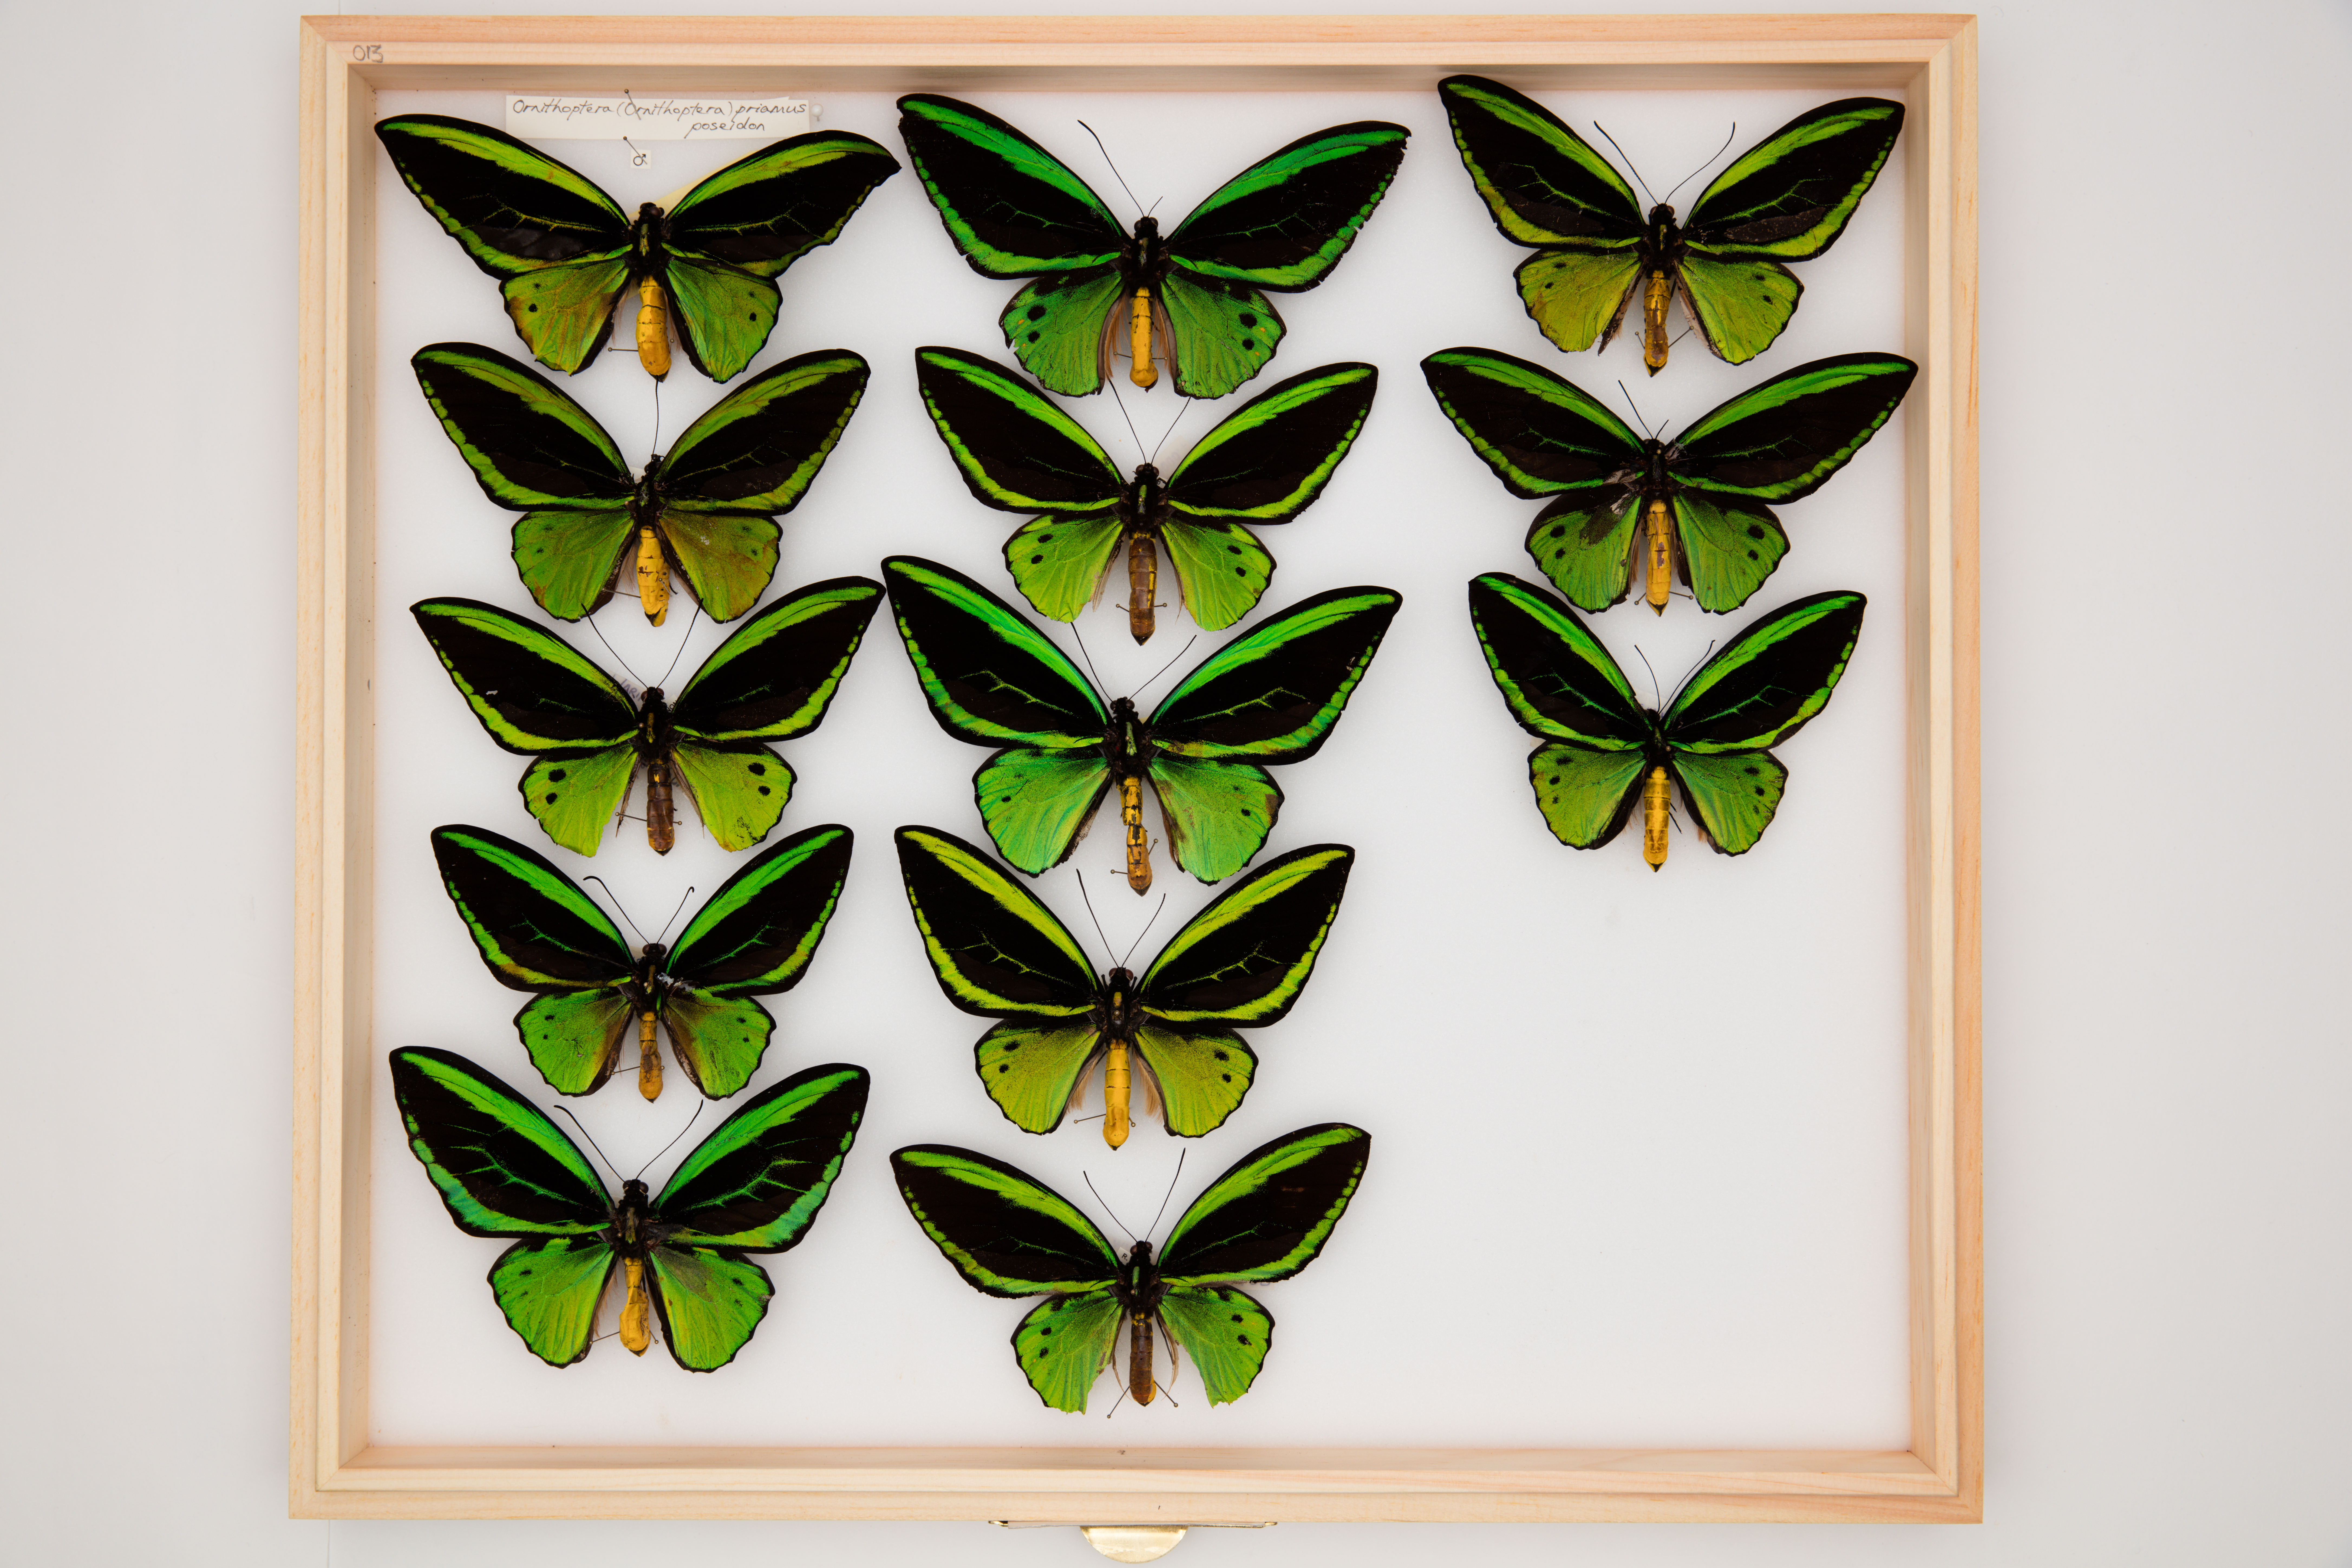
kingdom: Animalia
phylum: Arthropoda
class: Insecta
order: Lepidoptera
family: Papilionidae
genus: Ornithoptera
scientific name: Ornithoptera priamus
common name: Cape york birdwing
